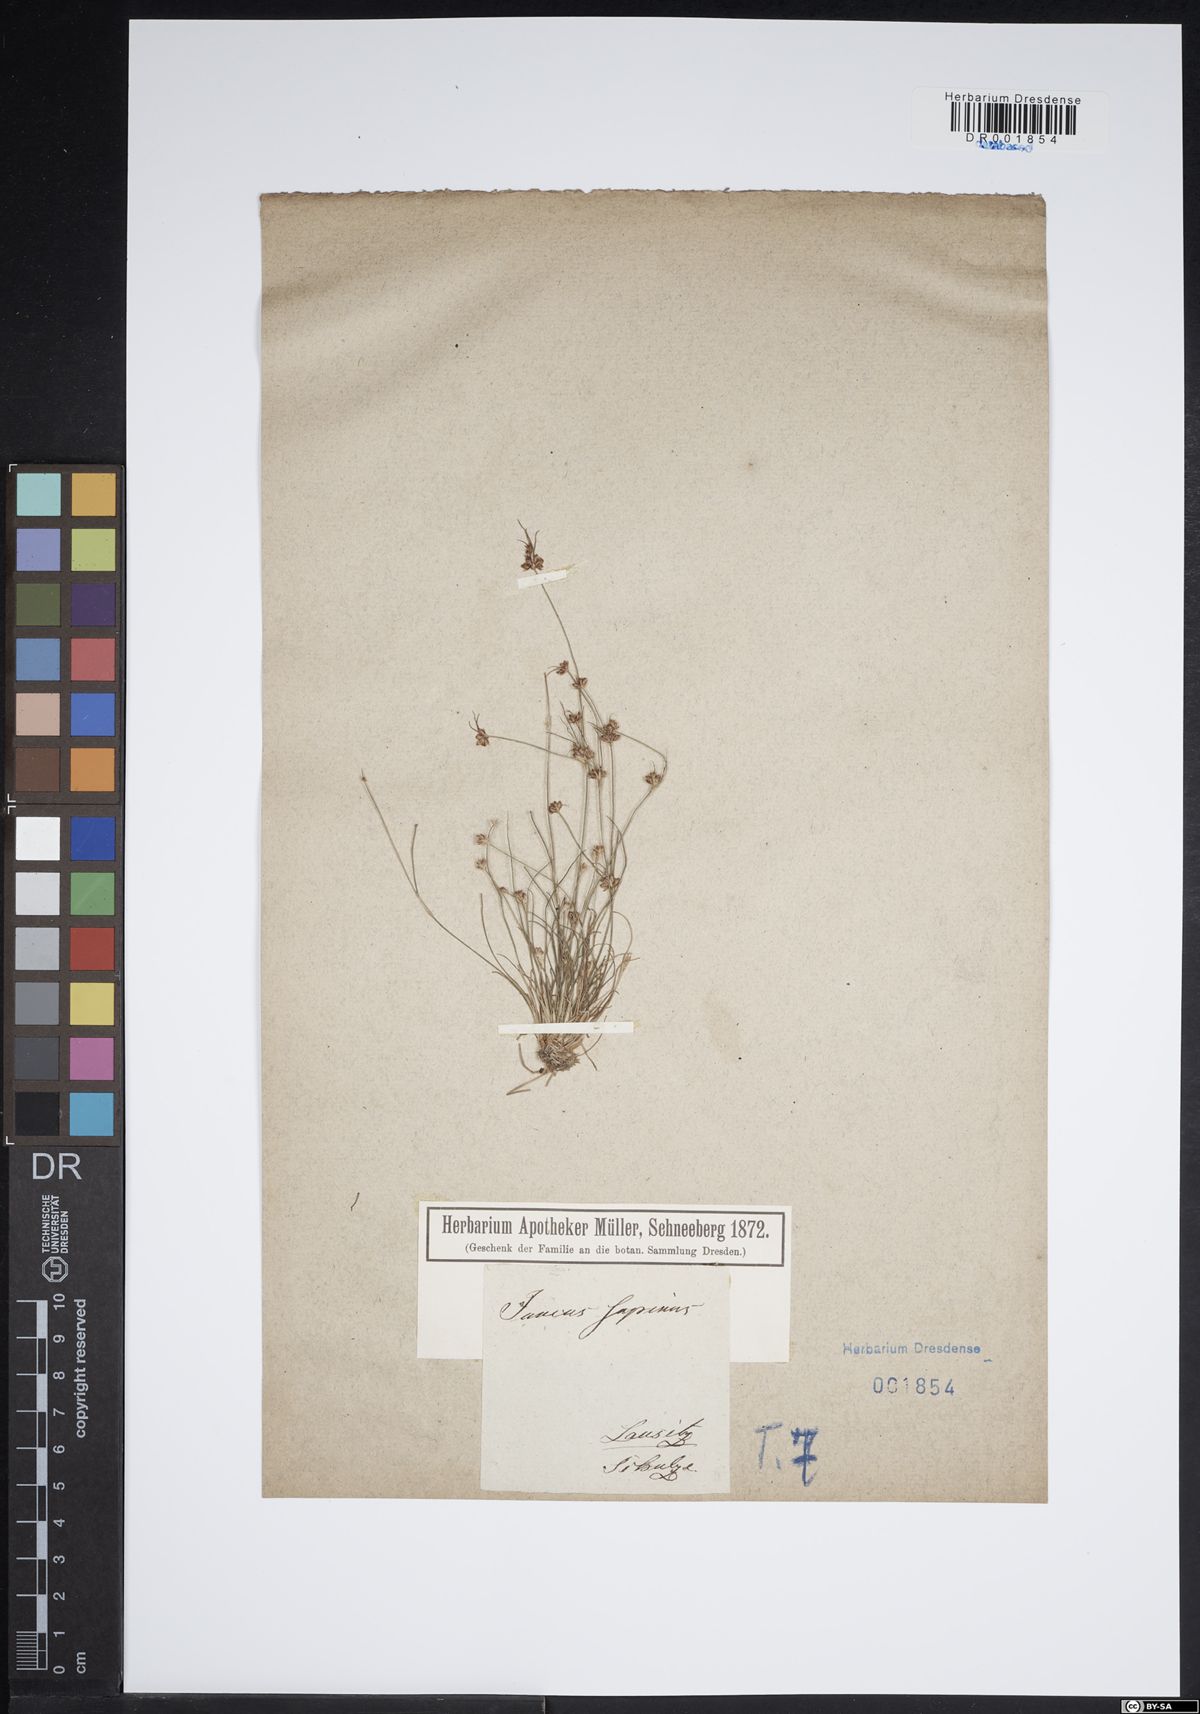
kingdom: Plantae
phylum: Tracheophyta
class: Liliopsida
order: Poales
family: Juncaceae
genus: Juncus
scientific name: Juncus bulbosus
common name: Bulbous rush
